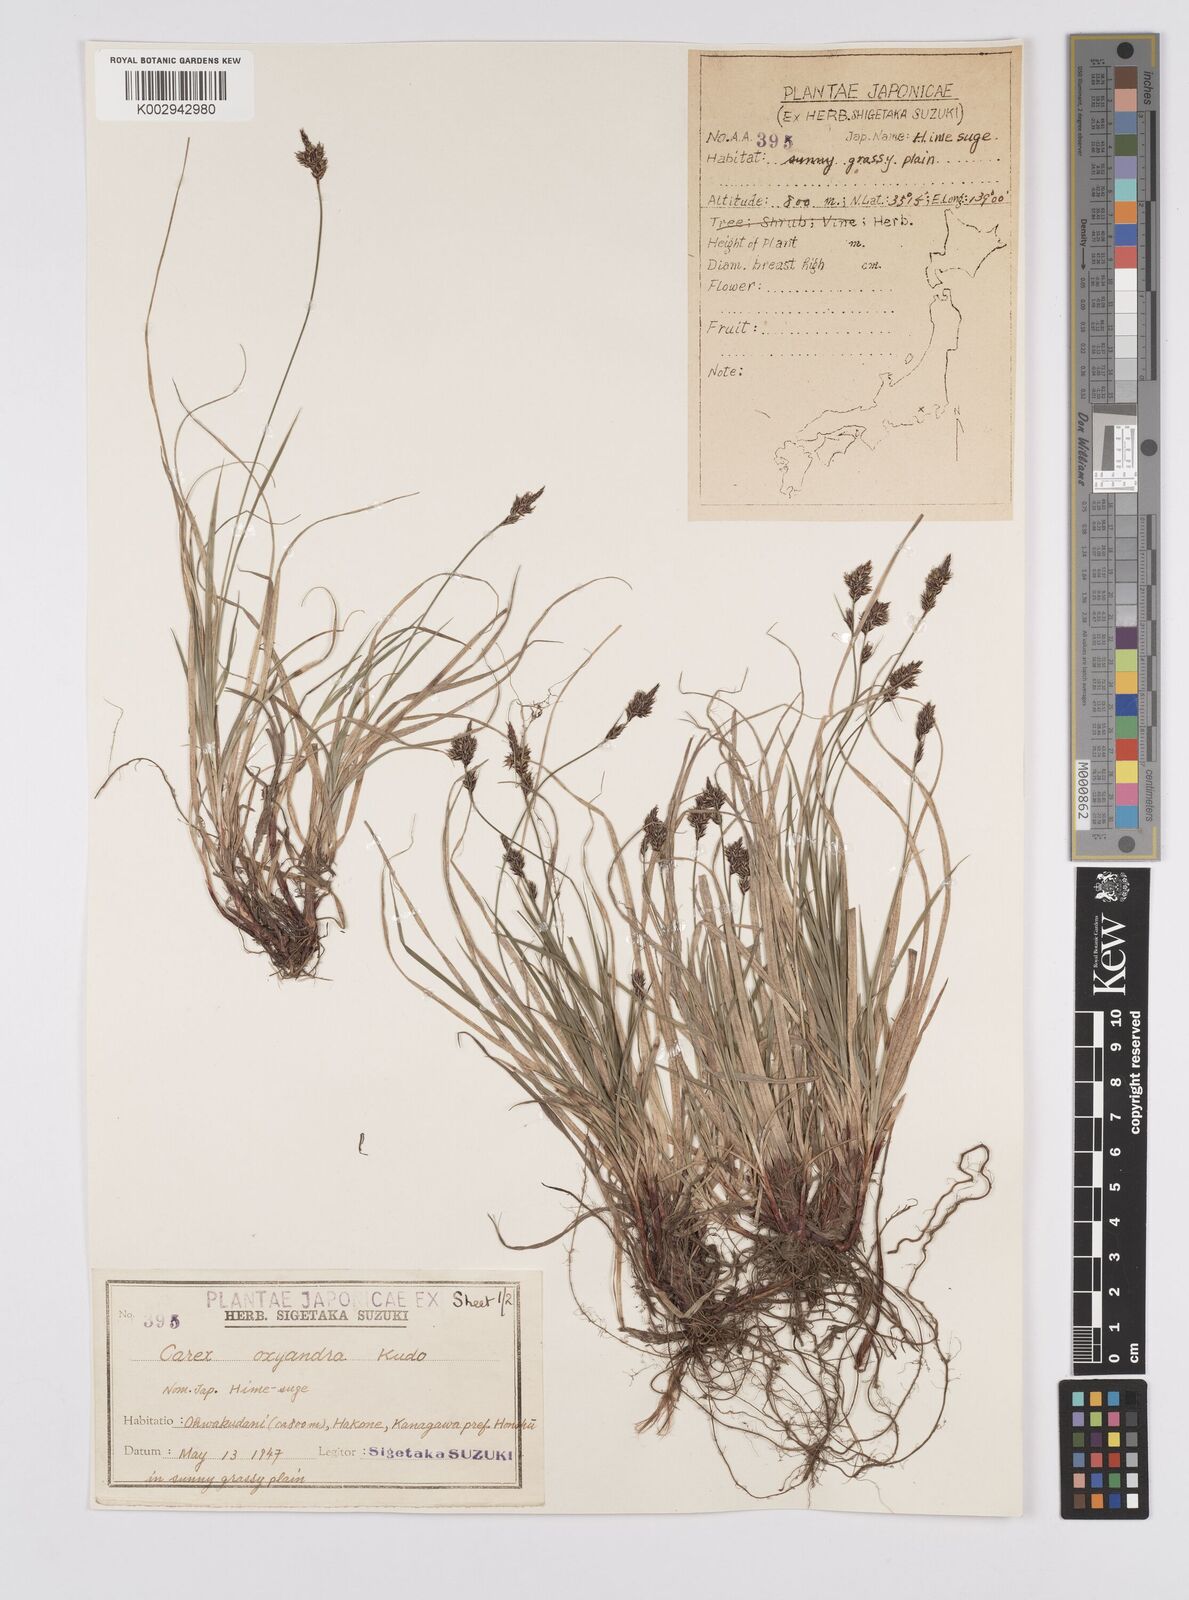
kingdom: Plantae
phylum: Tracheophyta
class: Liliopsida
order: Poales
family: Cyperaceae
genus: Carex
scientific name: Carex oxyandra
